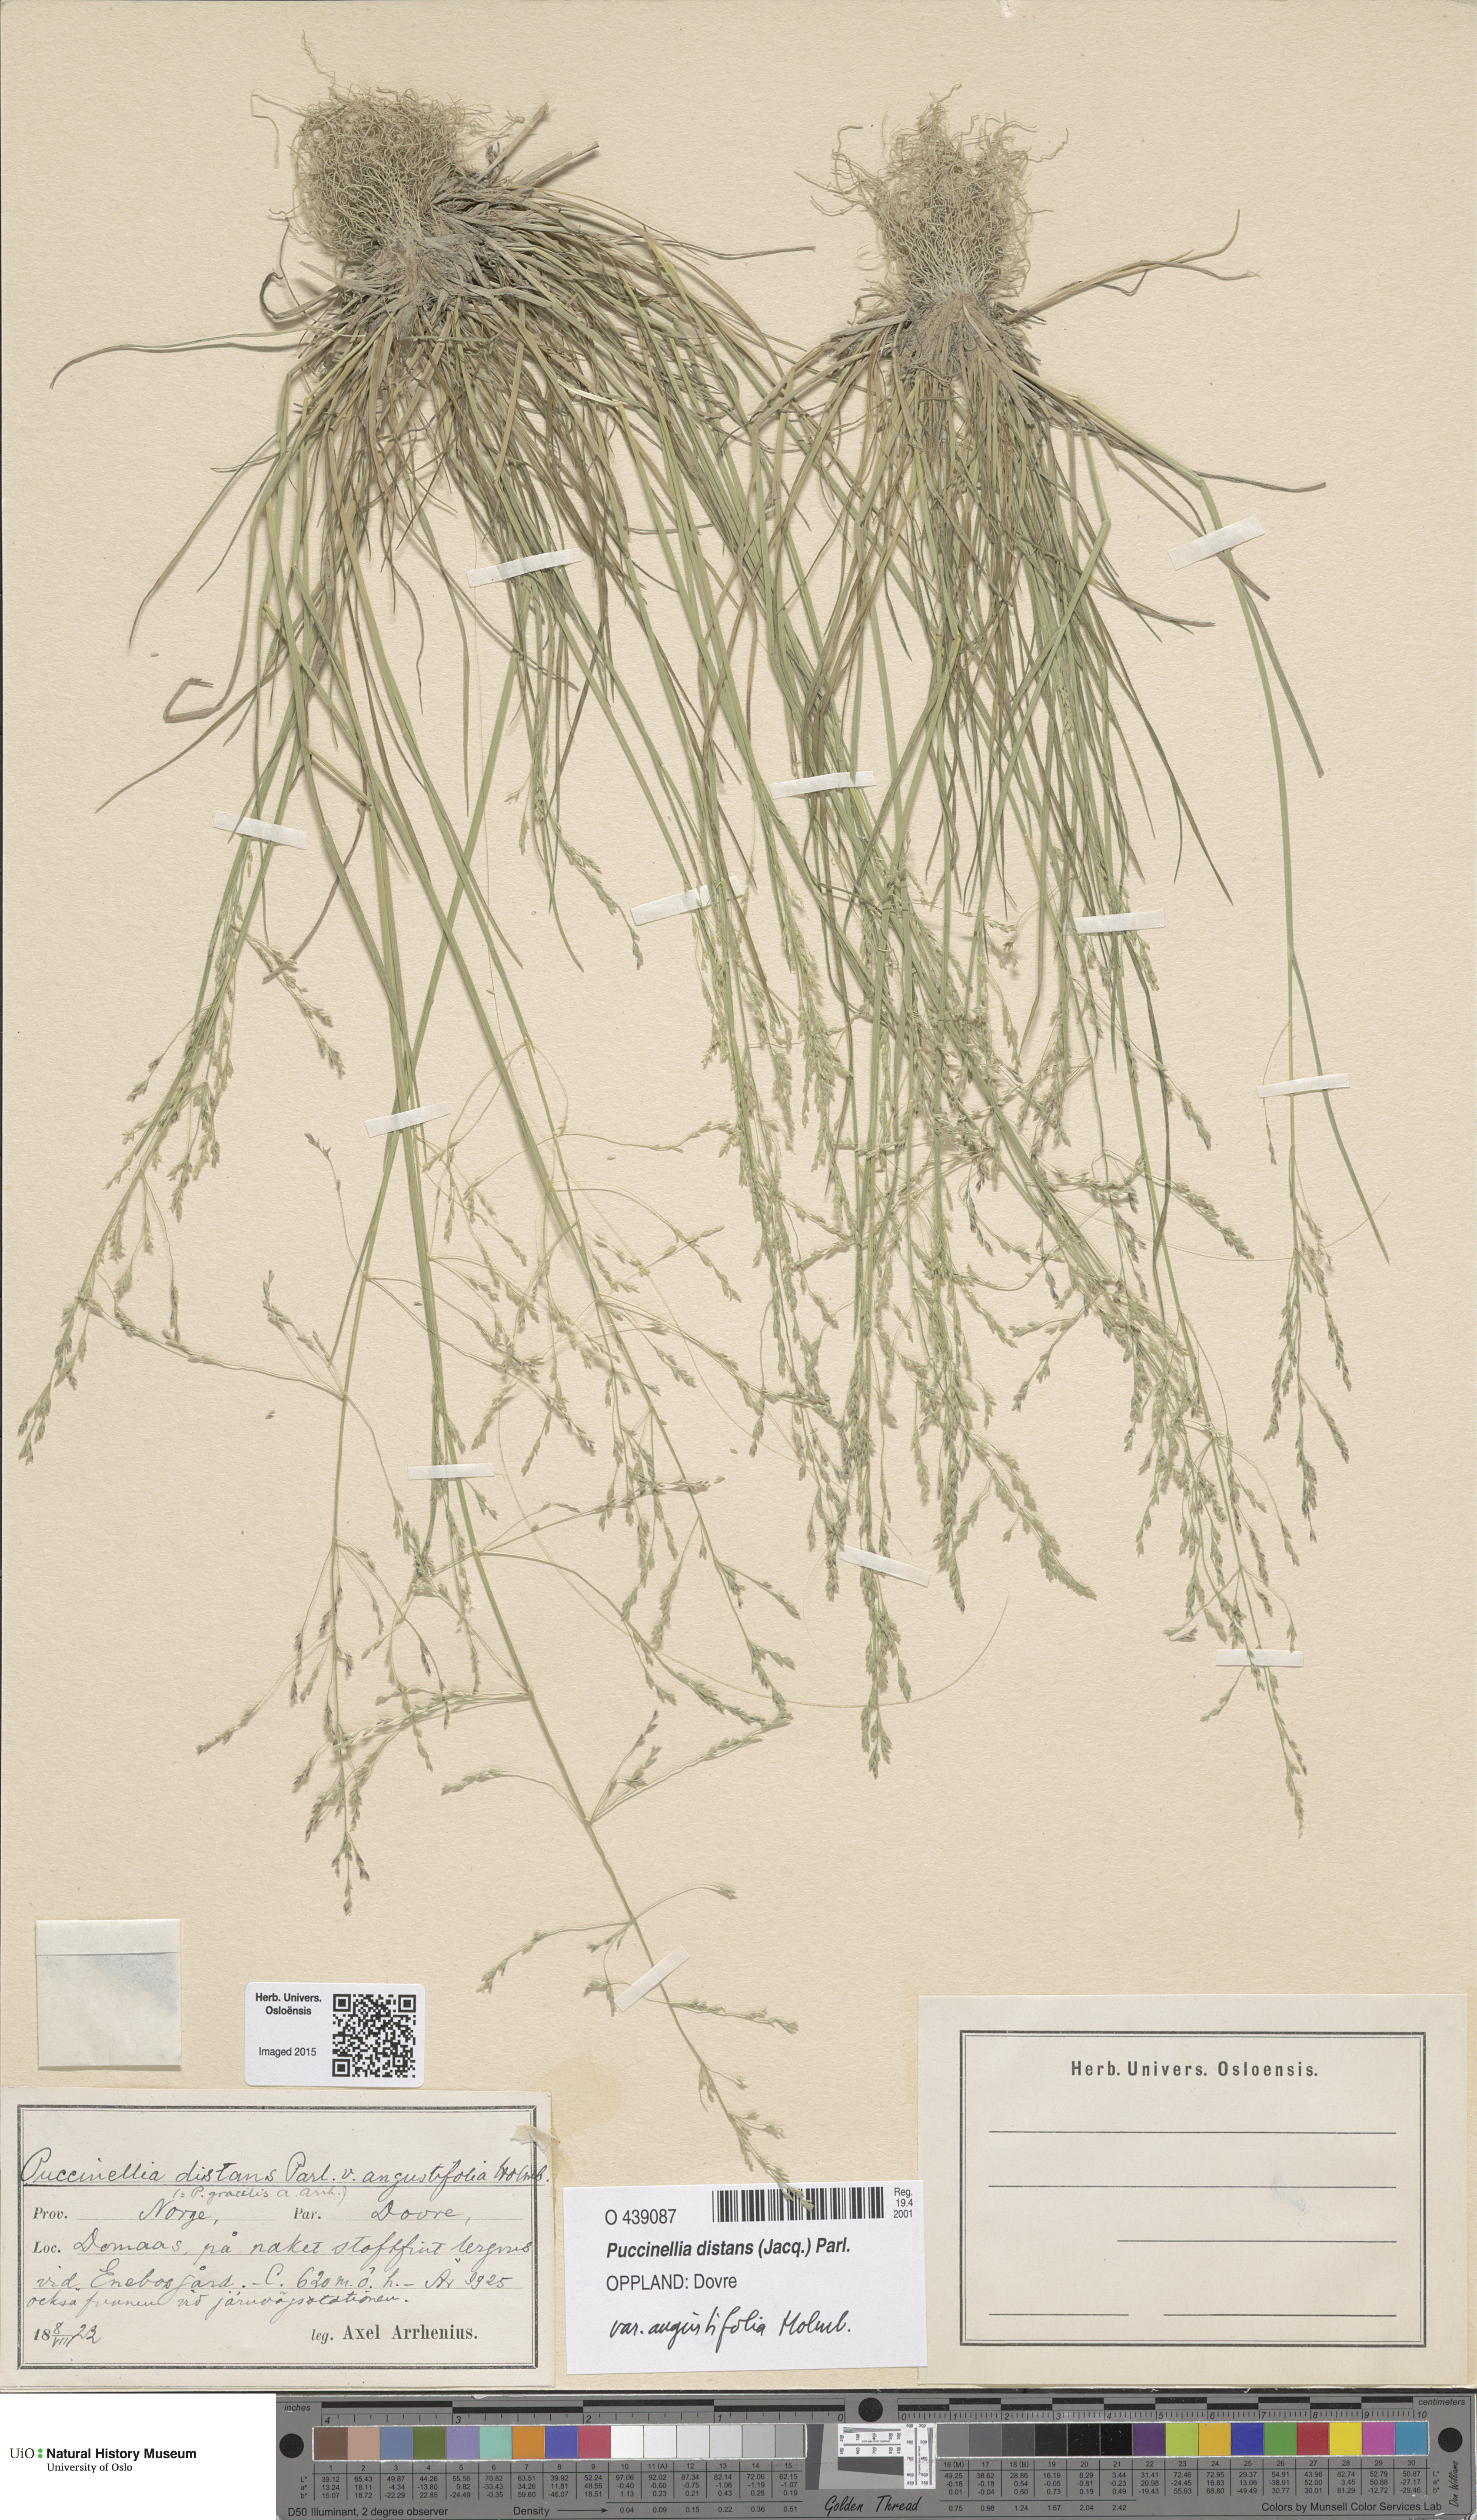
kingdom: Plantae
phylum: Tracheophyta
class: Liliopsida
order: Poales
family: Poaceae
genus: Puccinellia
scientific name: Puccinellia distans
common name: Weeping alkaligrass
